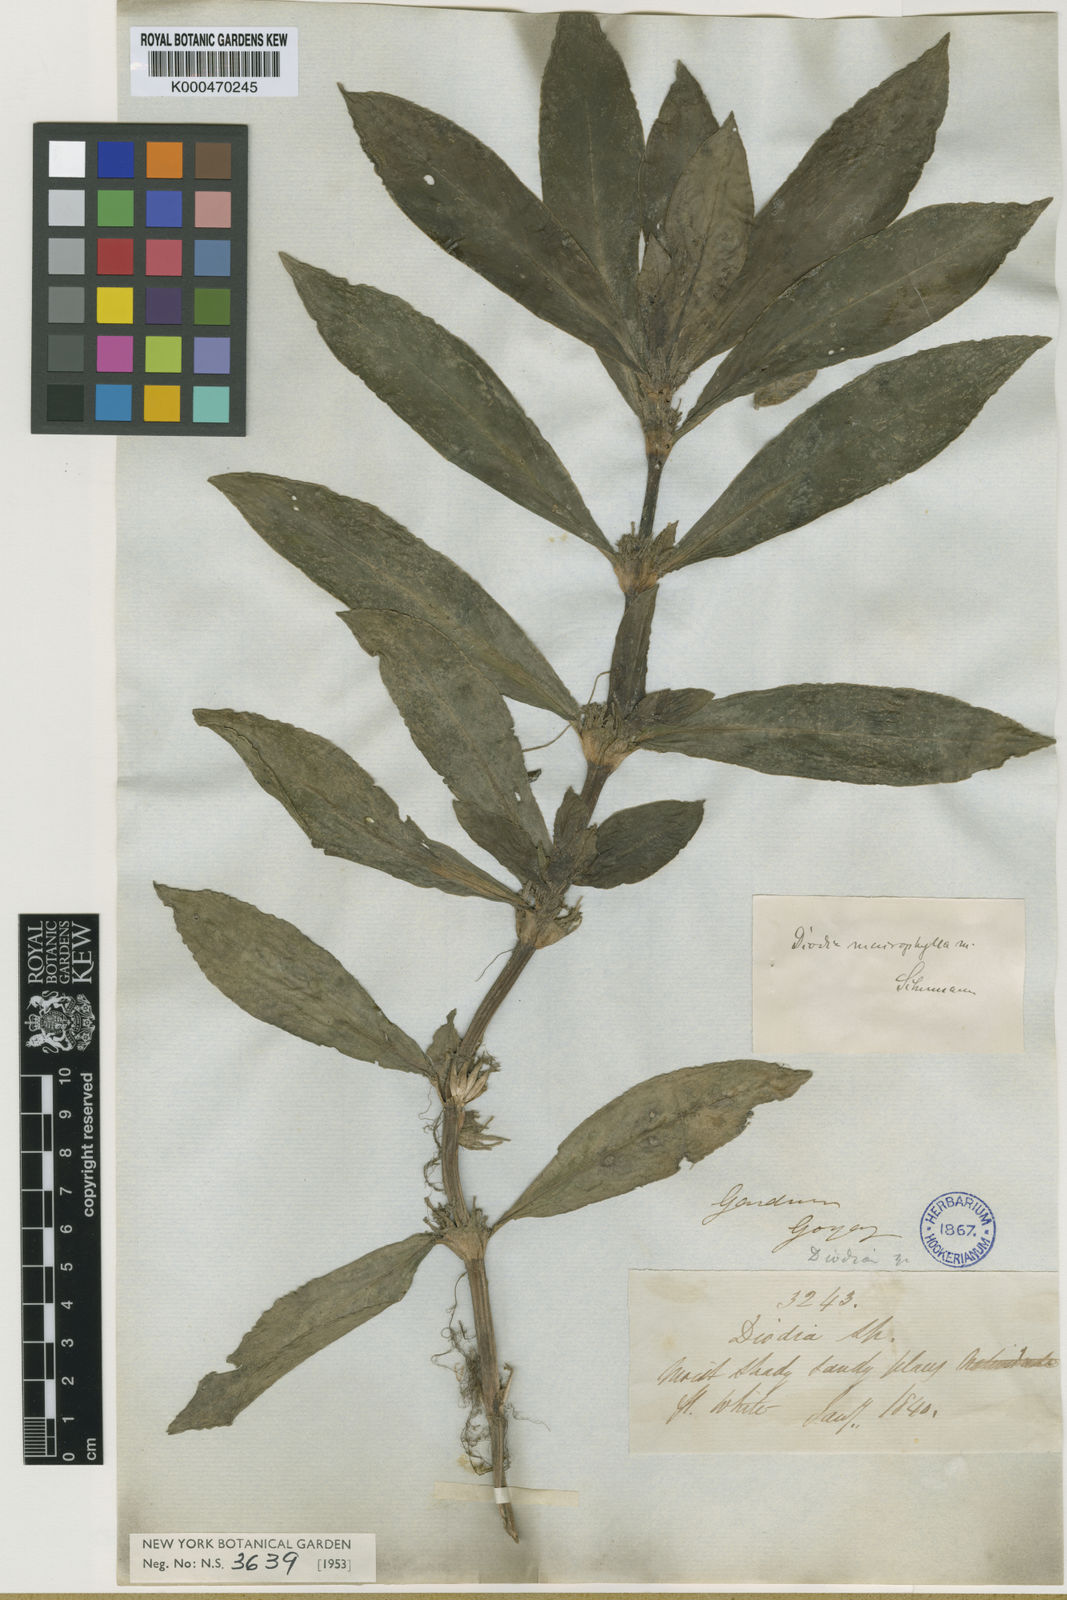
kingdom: Plantae
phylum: Tracheophyta
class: Magnoliopsida
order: Gentianales
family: Rubiaceae
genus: Diodia
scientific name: Diodia macrophylla
